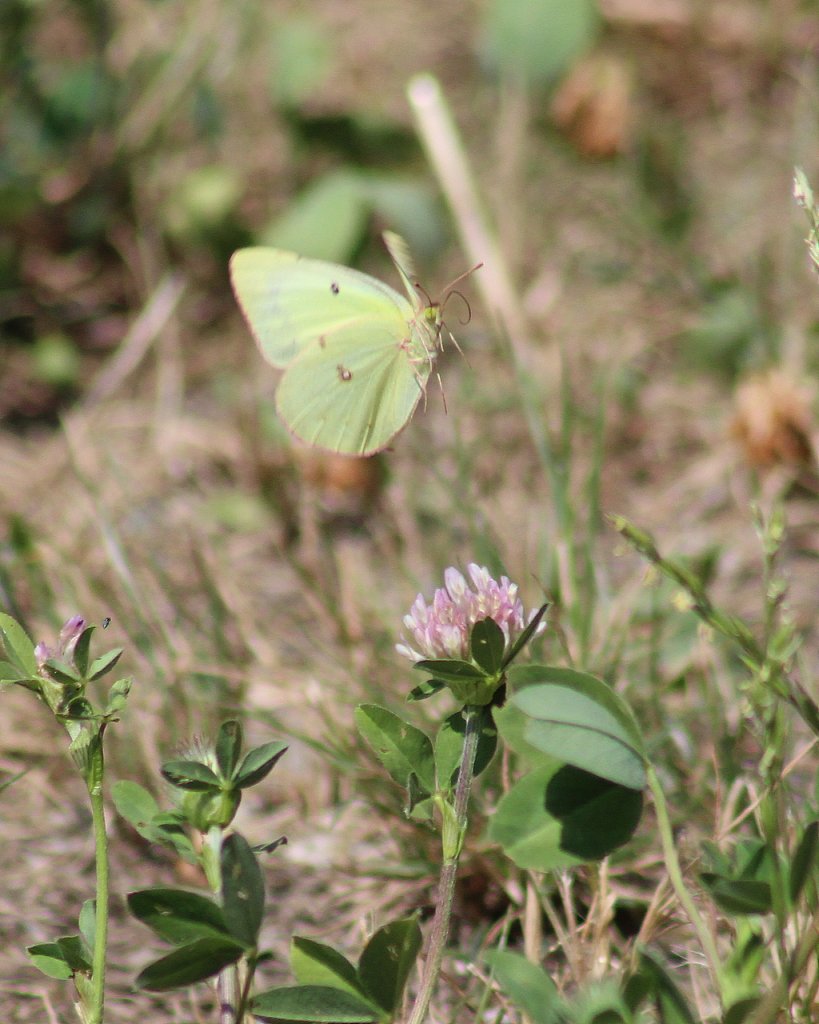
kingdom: Animalia
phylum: Arthropoda
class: Insecta
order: Lepidoptera
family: Pieridae
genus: Colias
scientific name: Colias philodice
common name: Clouded Sulphur
